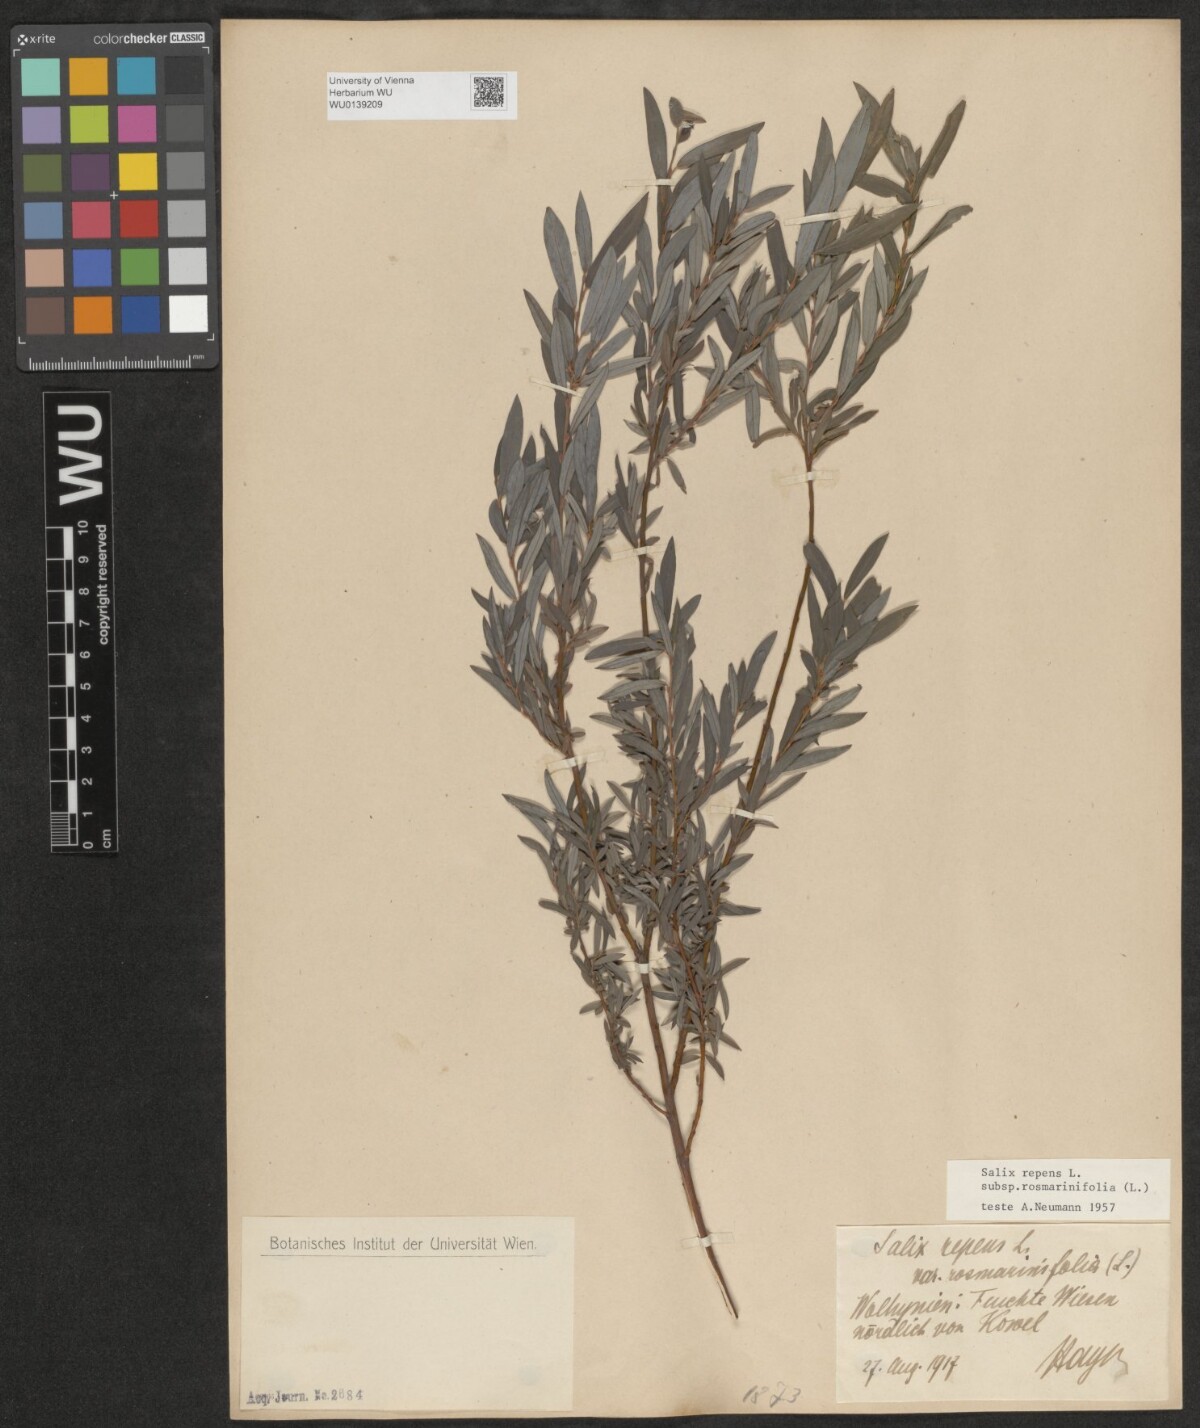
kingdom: Plantae
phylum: Tracheophyta
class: Magnoliopsida
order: Malpighiales
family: Salicaceae
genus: Salix
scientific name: Salix repens
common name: Creeping willow
